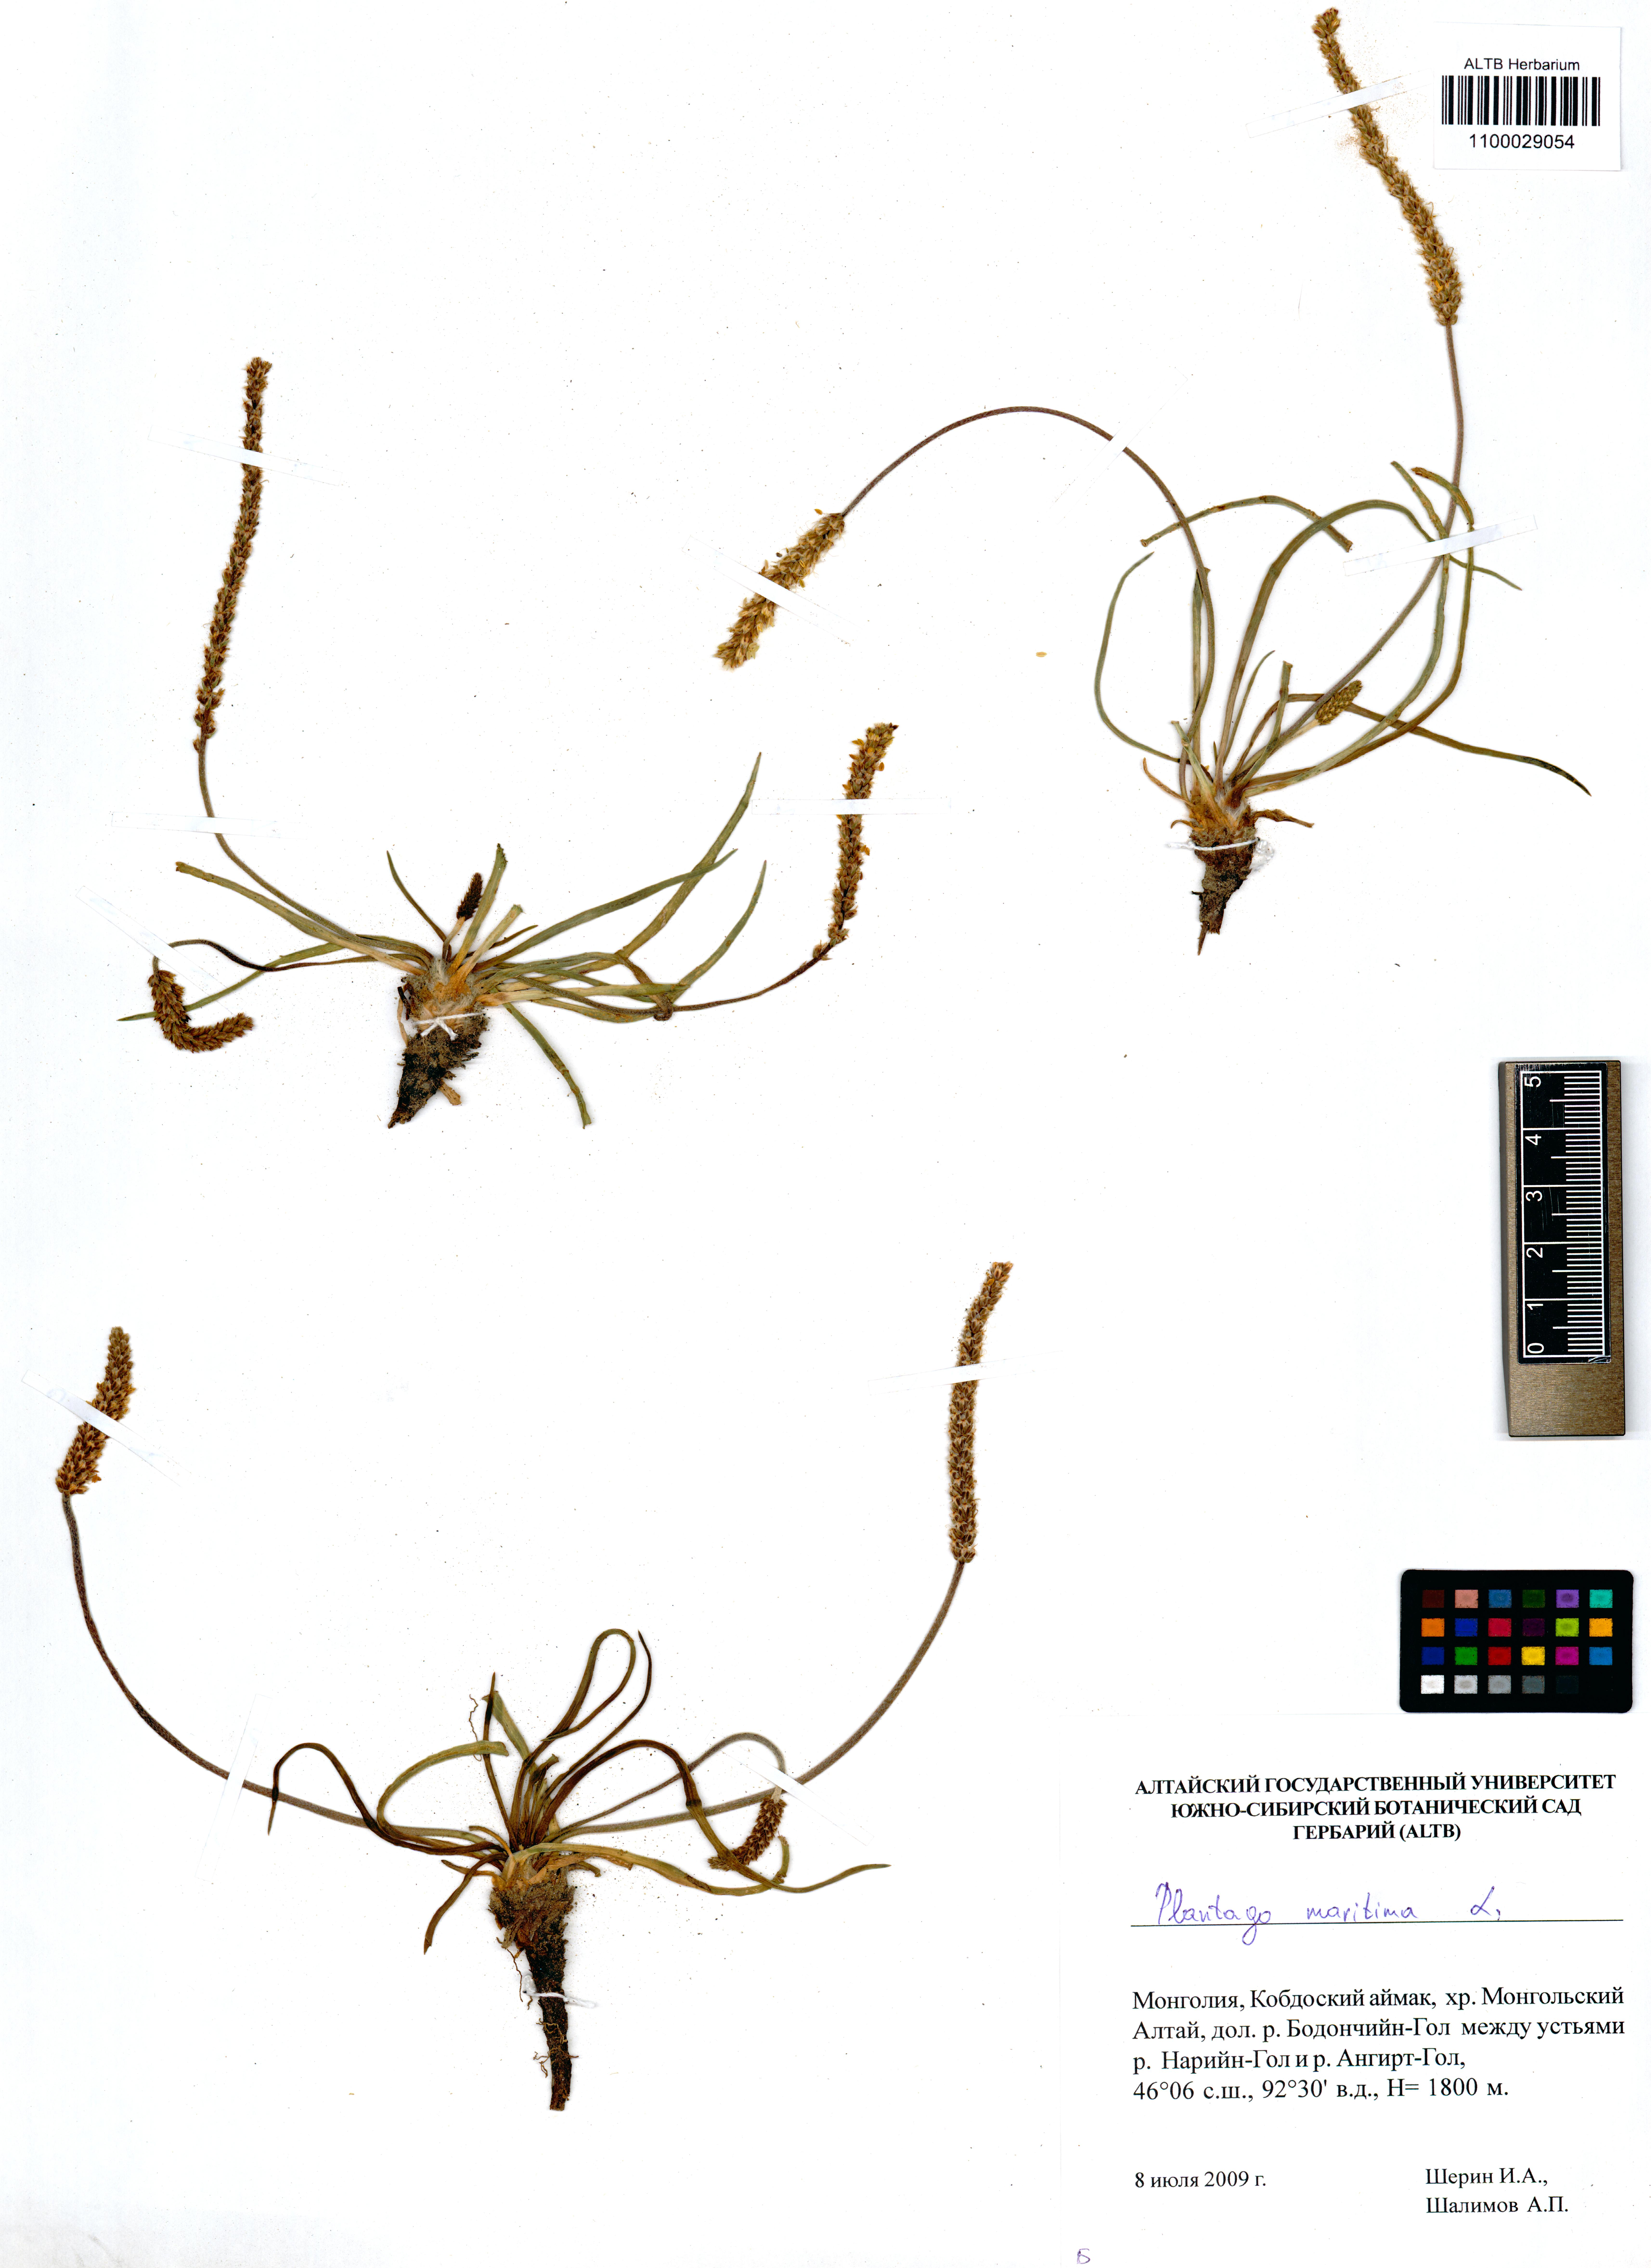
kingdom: Plantae
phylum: Tracheophyta
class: Magnoliopsida
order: Lamiales
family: Plantaginaceae
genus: Plantago
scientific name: Plantago maritima
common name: Sea plantain
